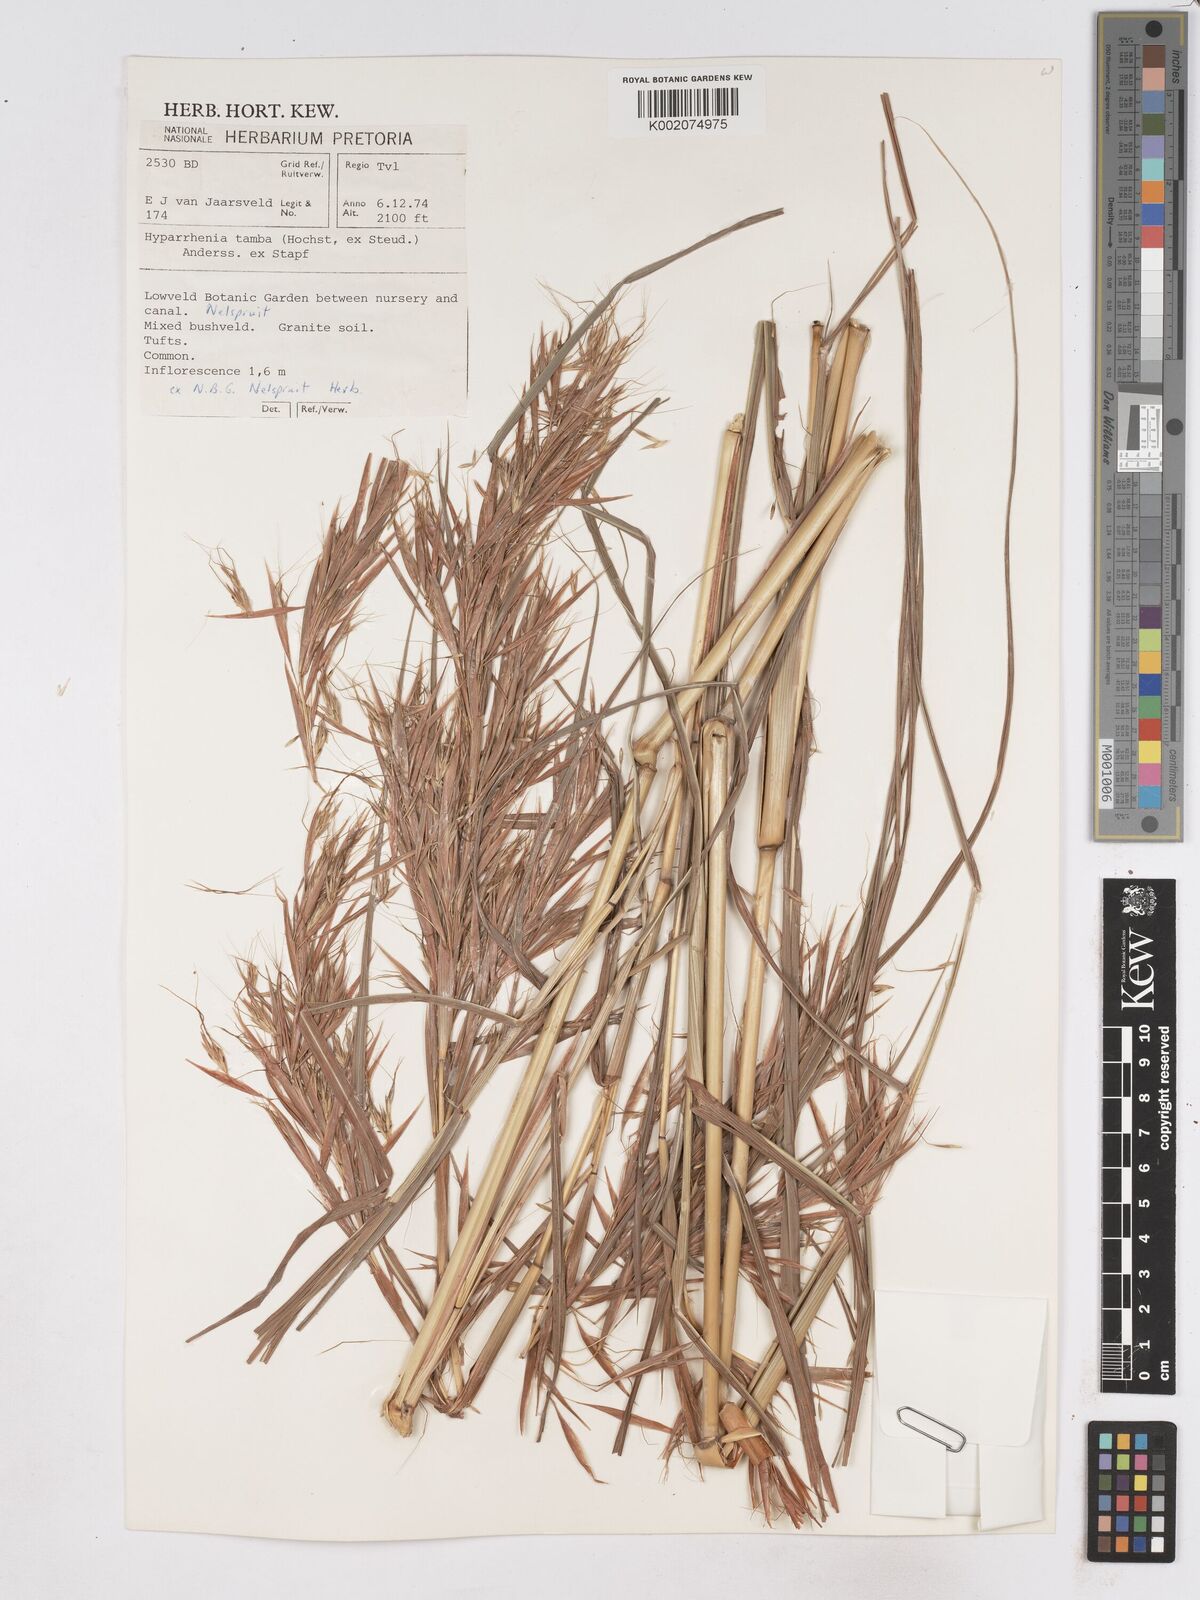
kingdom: Plantae
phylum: Tracheophyta
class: Liliopsida
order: Poales
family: Poaceae
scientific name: Poaceae
